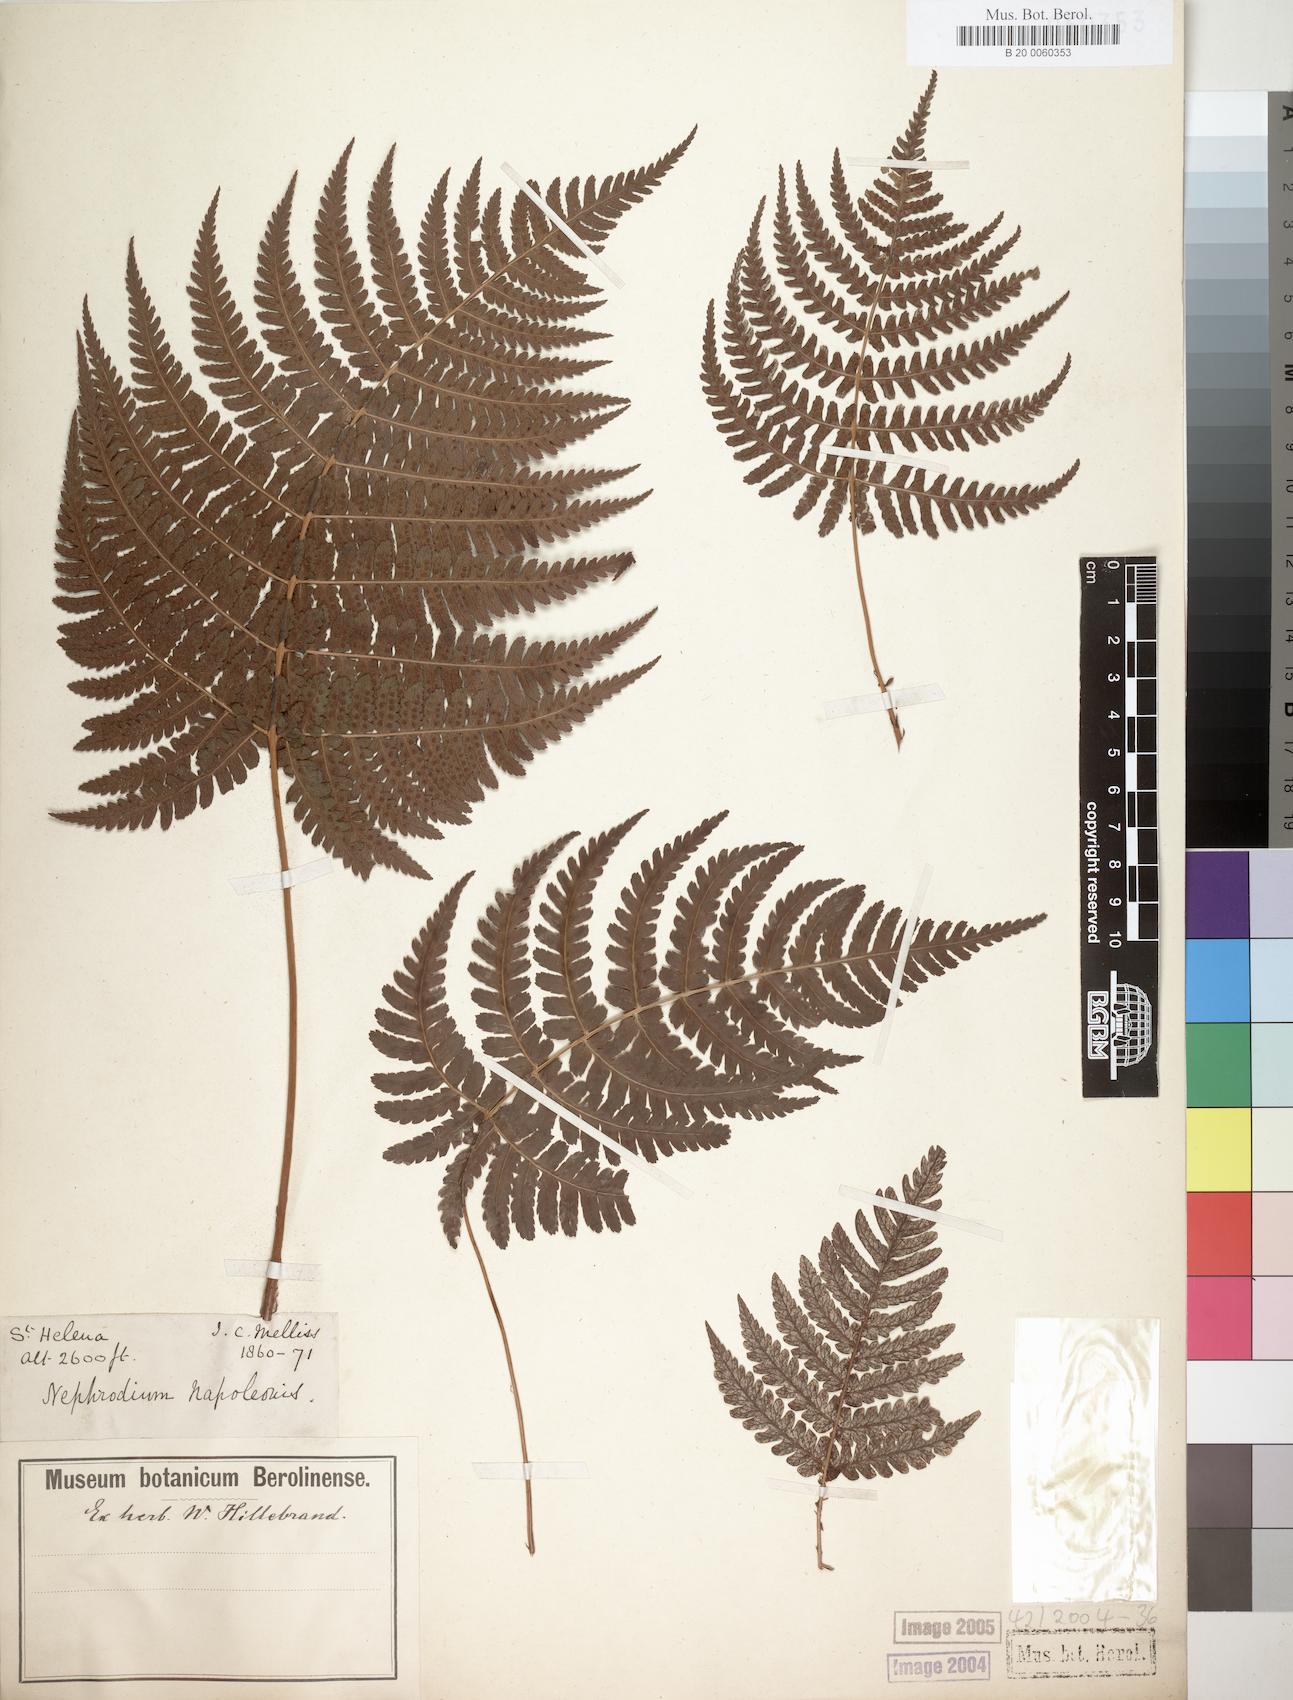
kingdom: Plantae
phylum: Tracheophyta
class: Polypodiopsida
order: Polypodiales
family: Dryopteridaceae
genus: Dryopteris
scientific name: Dryopteris napoleonis
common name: Small kidney fern
